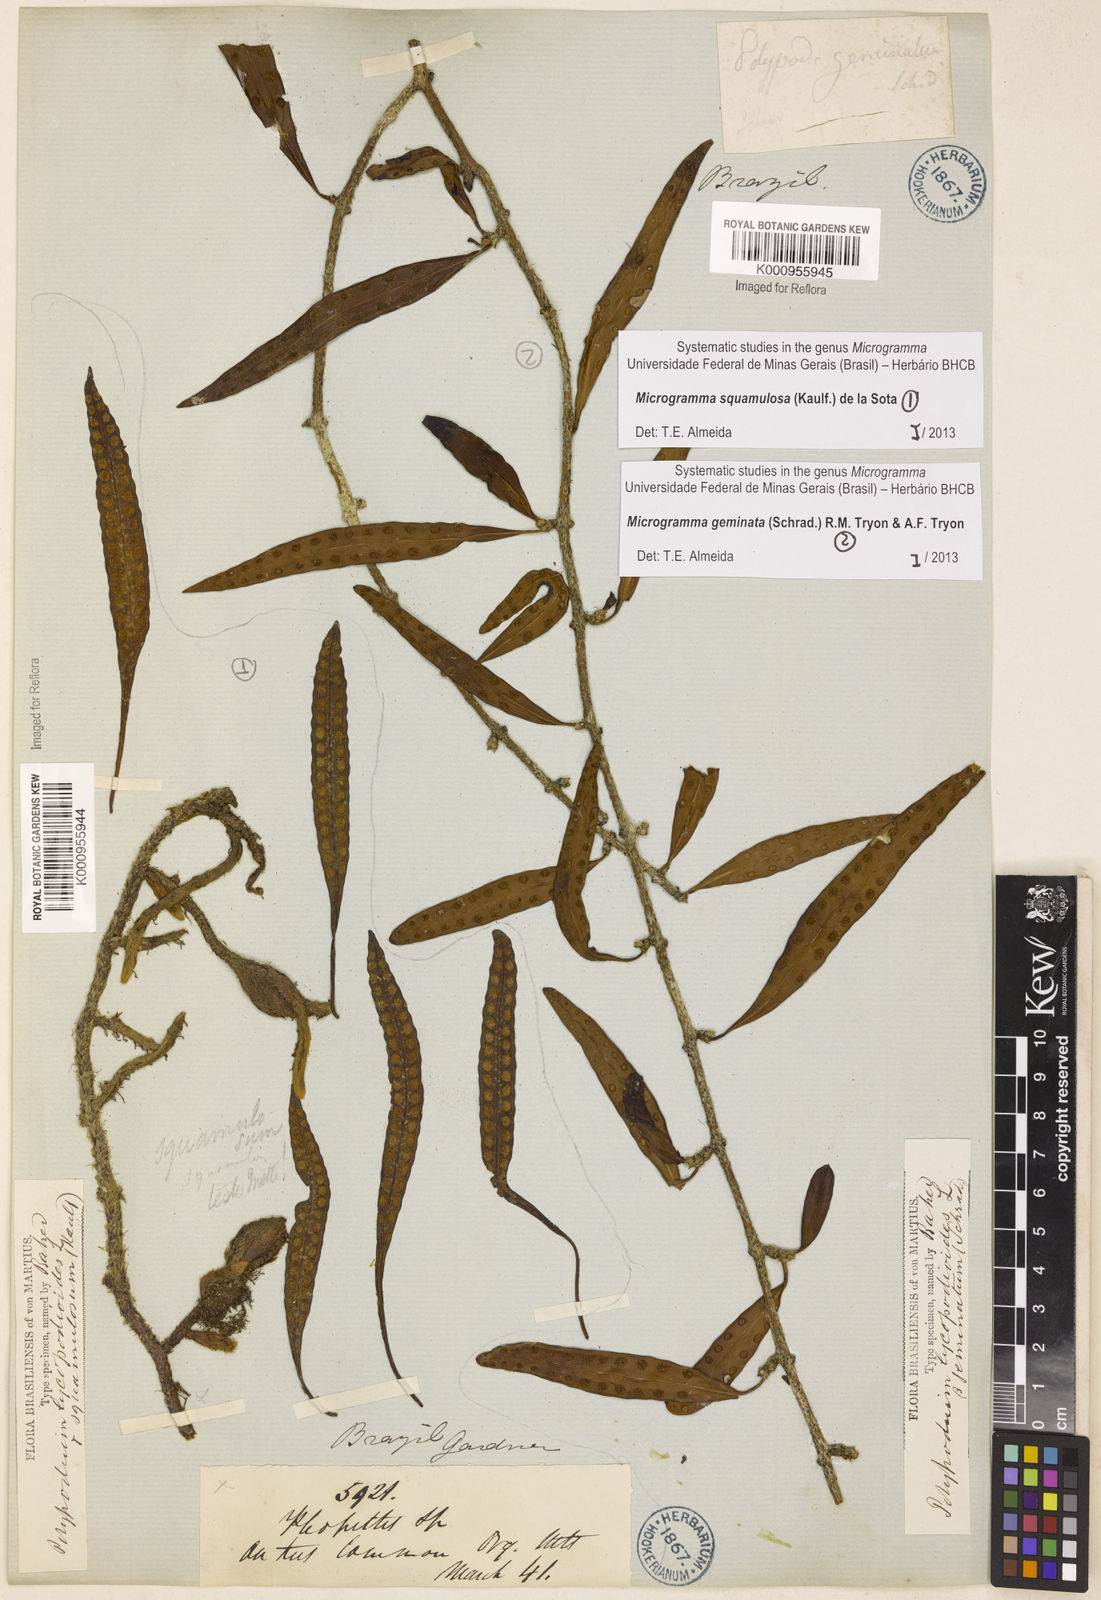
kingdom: Plantae
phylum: Tracheophyta
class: Polypodiopsida
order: Polypodiales
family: Polypodiaceae
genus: Microgramma
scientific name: Microgramma squamulosa
